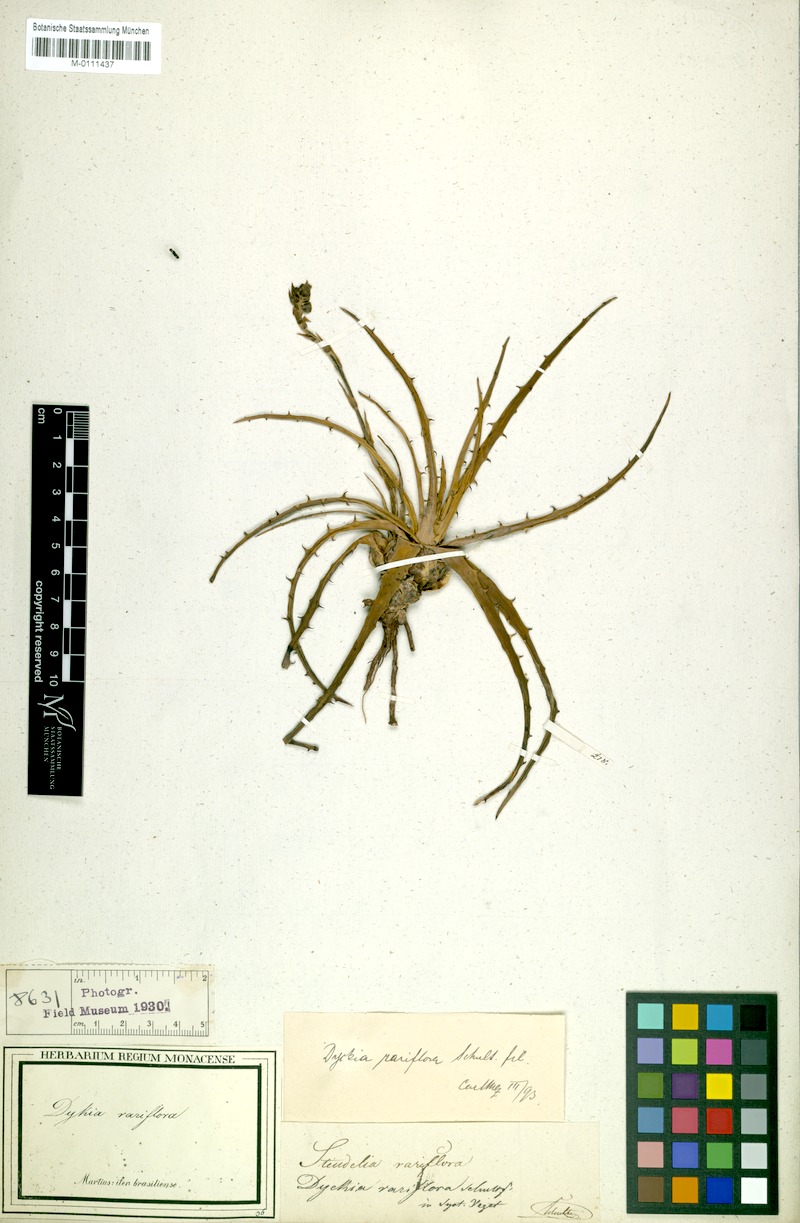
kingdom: Plantae
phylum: Tracheophyta
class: Liliopsida
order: Poales
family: Bromeliaceae
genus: Dyckia
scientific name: Dyckia rariflora
